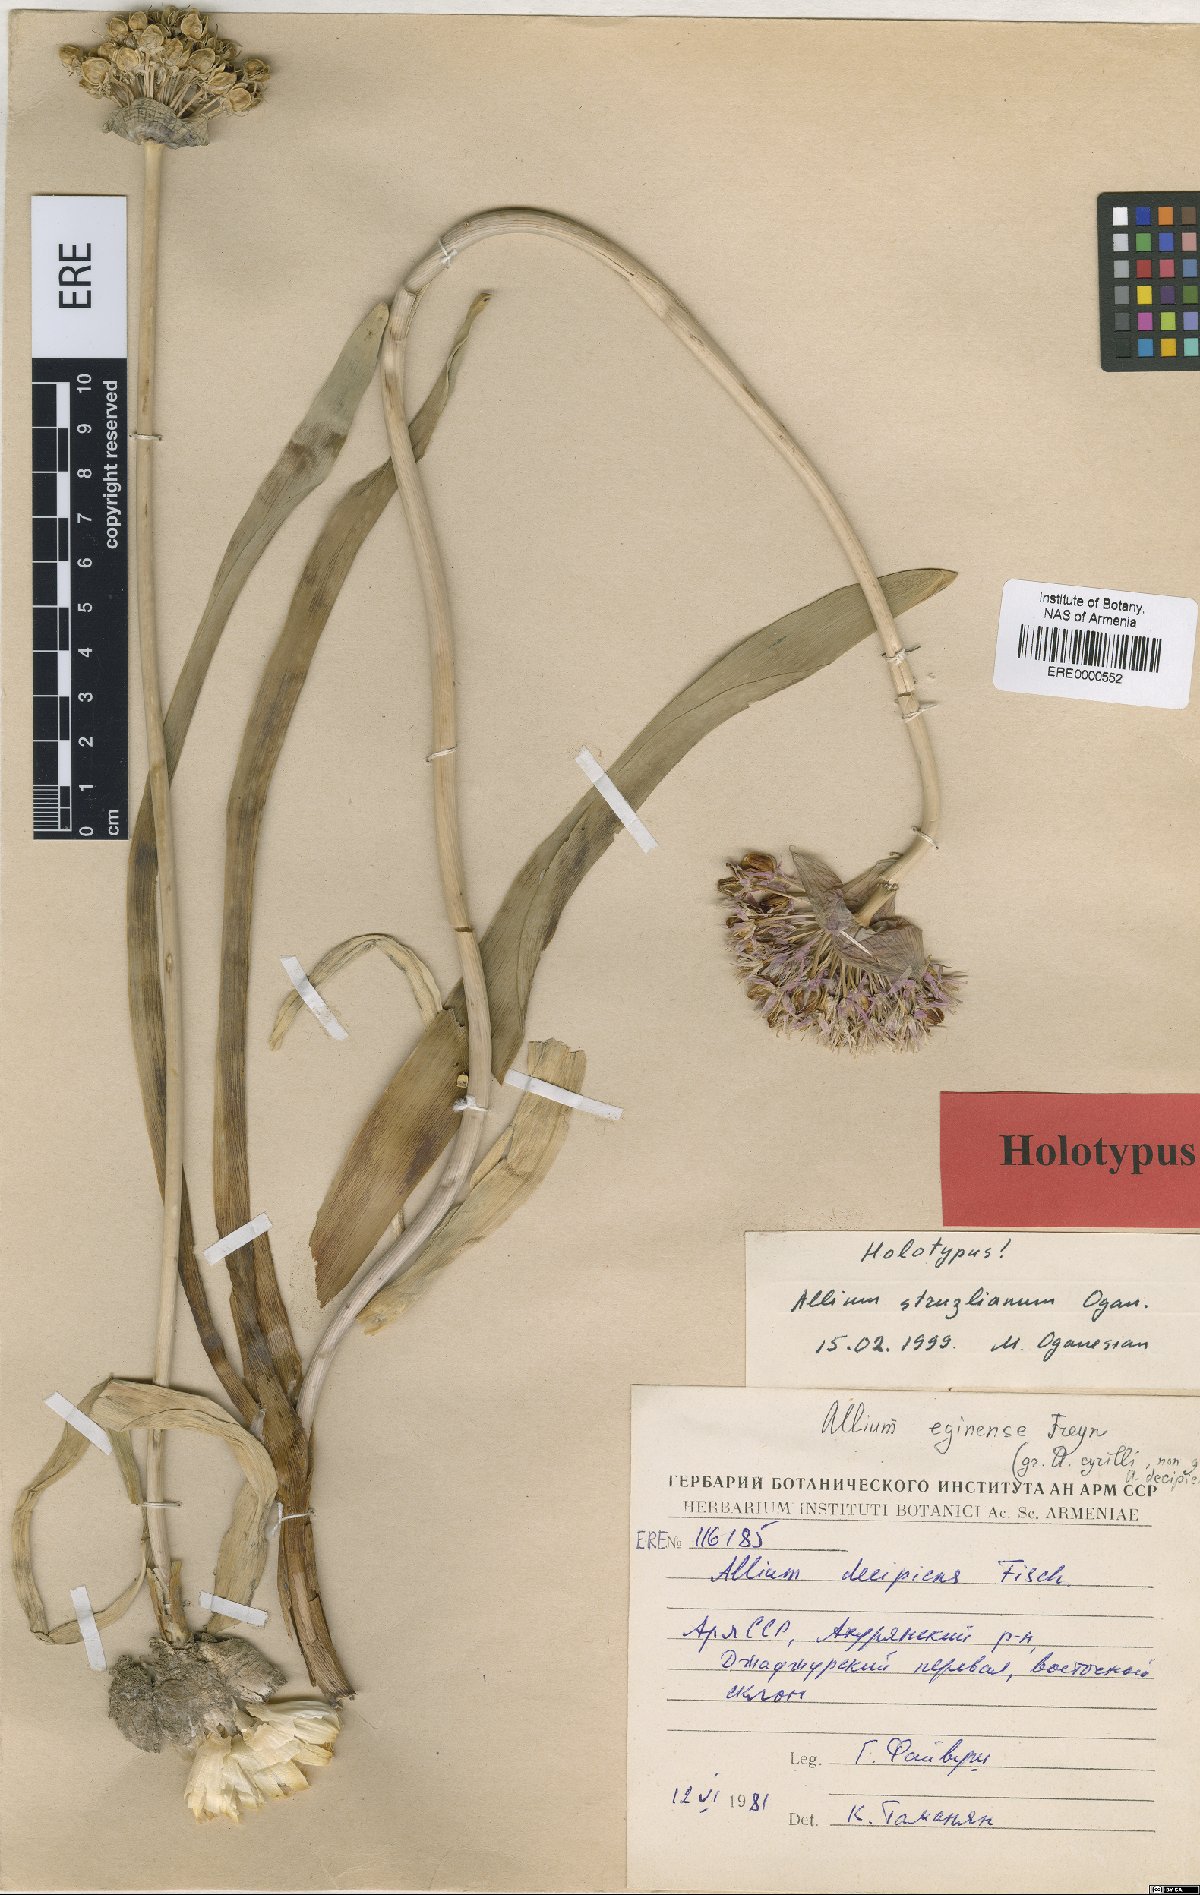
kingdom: Plantae
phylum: Tracheophyta
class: Liliopsida
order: Asparagales
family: Amaryllidaceae
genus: Allium
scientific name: Allium struzlianum
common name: Struzl's onion
